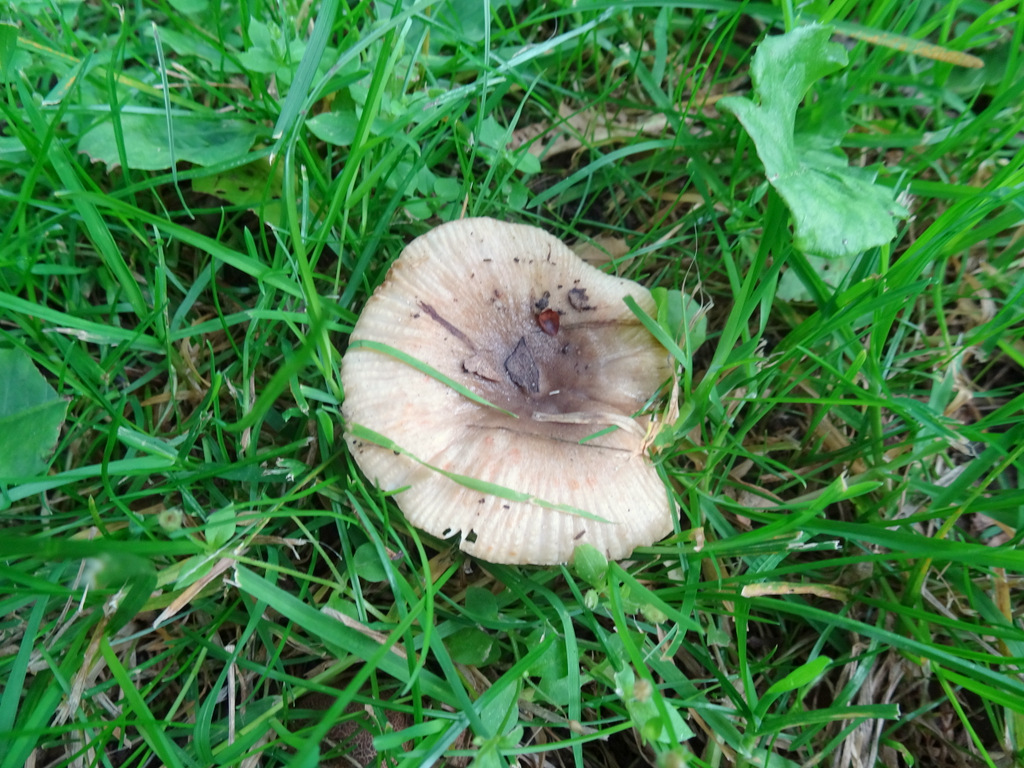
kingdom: Fungi
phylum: Basidiomycota
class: Agaricomycetes
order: Russulales
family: Russulaceae
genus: Russula
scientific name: Russula recondita
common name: mild kam-skørhat
